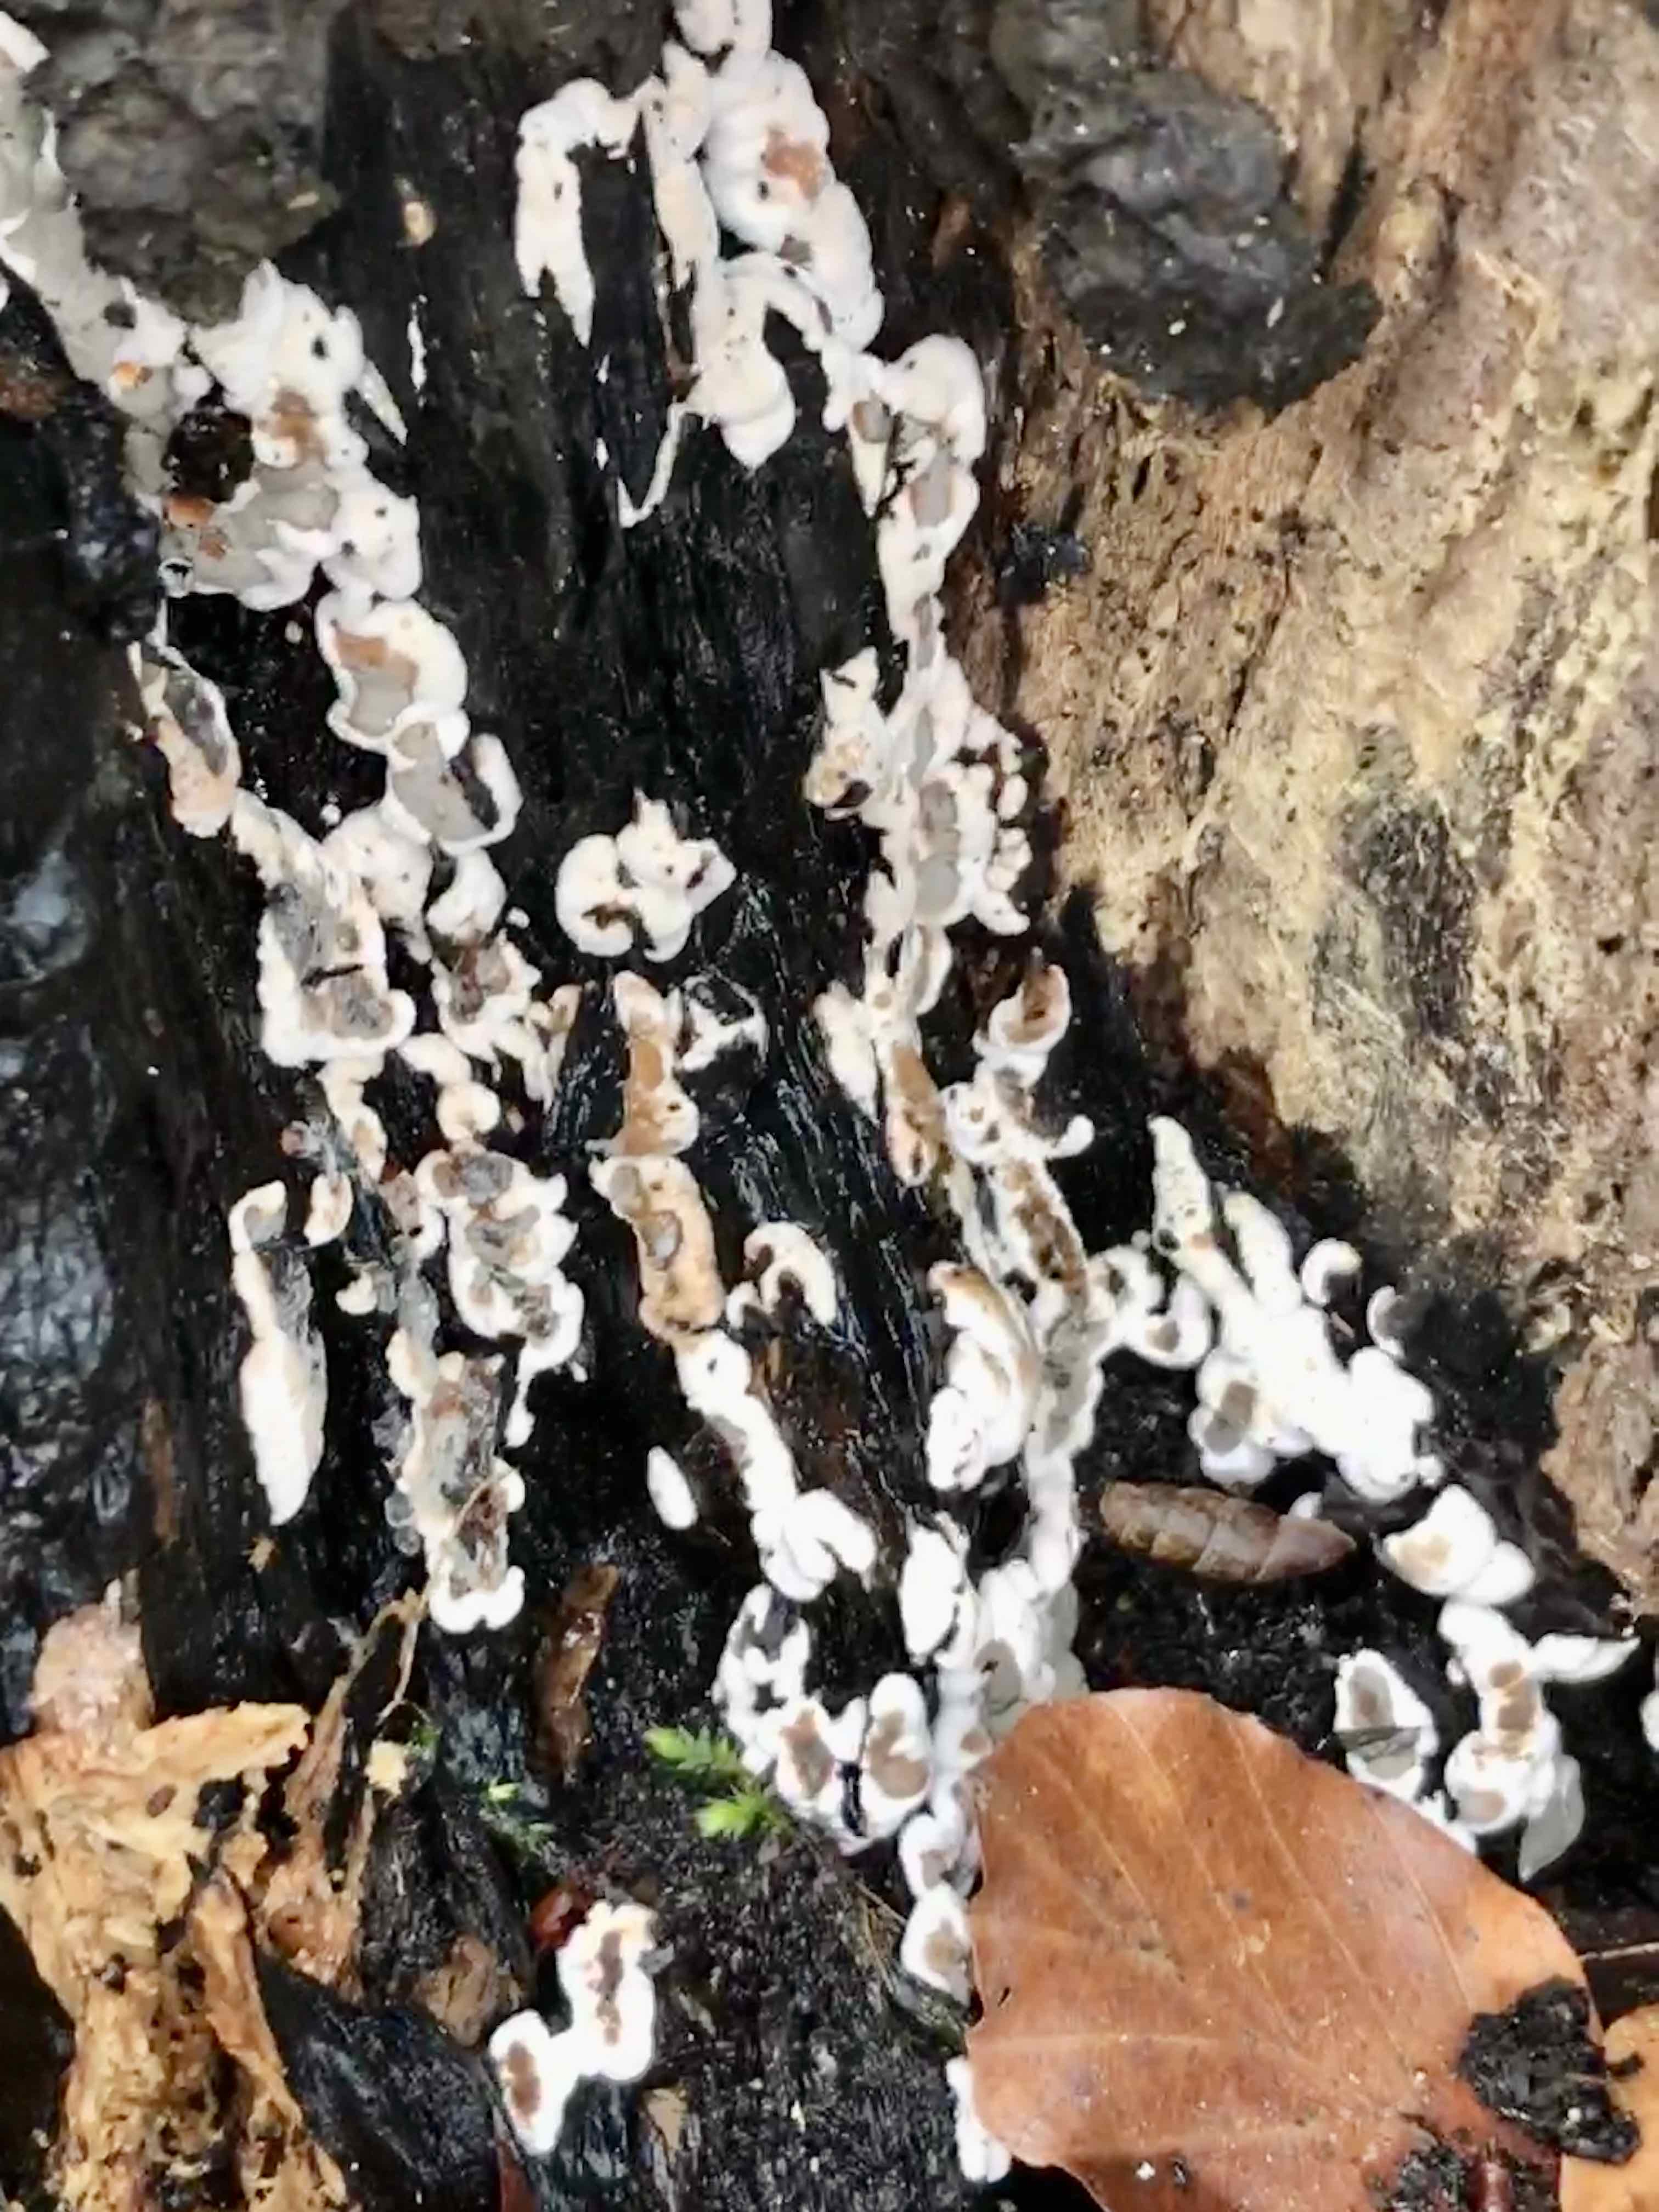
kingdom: Fungi
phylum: Ascomycota
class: Sordariomycetes
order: Xylariales
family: Xylariaceae
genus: Kretzschmaria
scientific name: Kretzschmaria deusta
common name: stor kulsvamp
